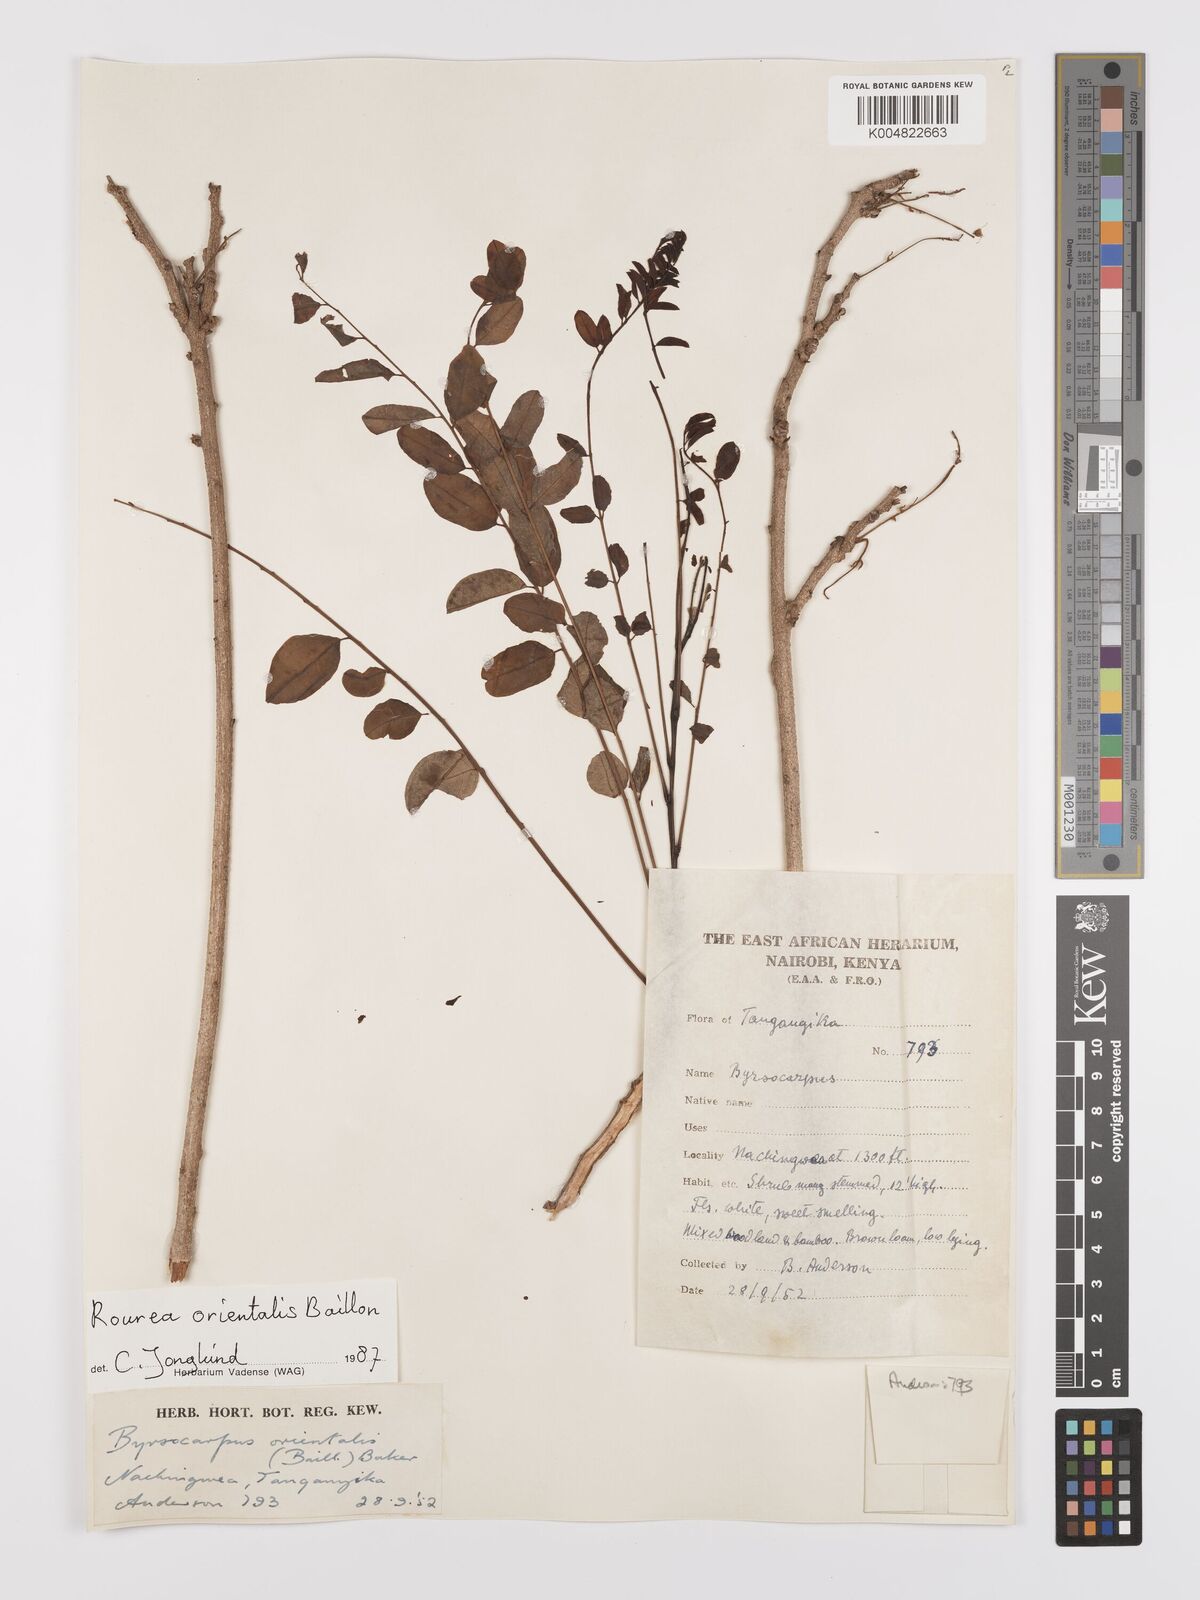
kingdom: Plantae
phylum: Tracheophyta
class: Magnoliopsida
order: Oxalidales
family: Connaraceae
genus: Rourea
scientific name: Rourea orientalis
